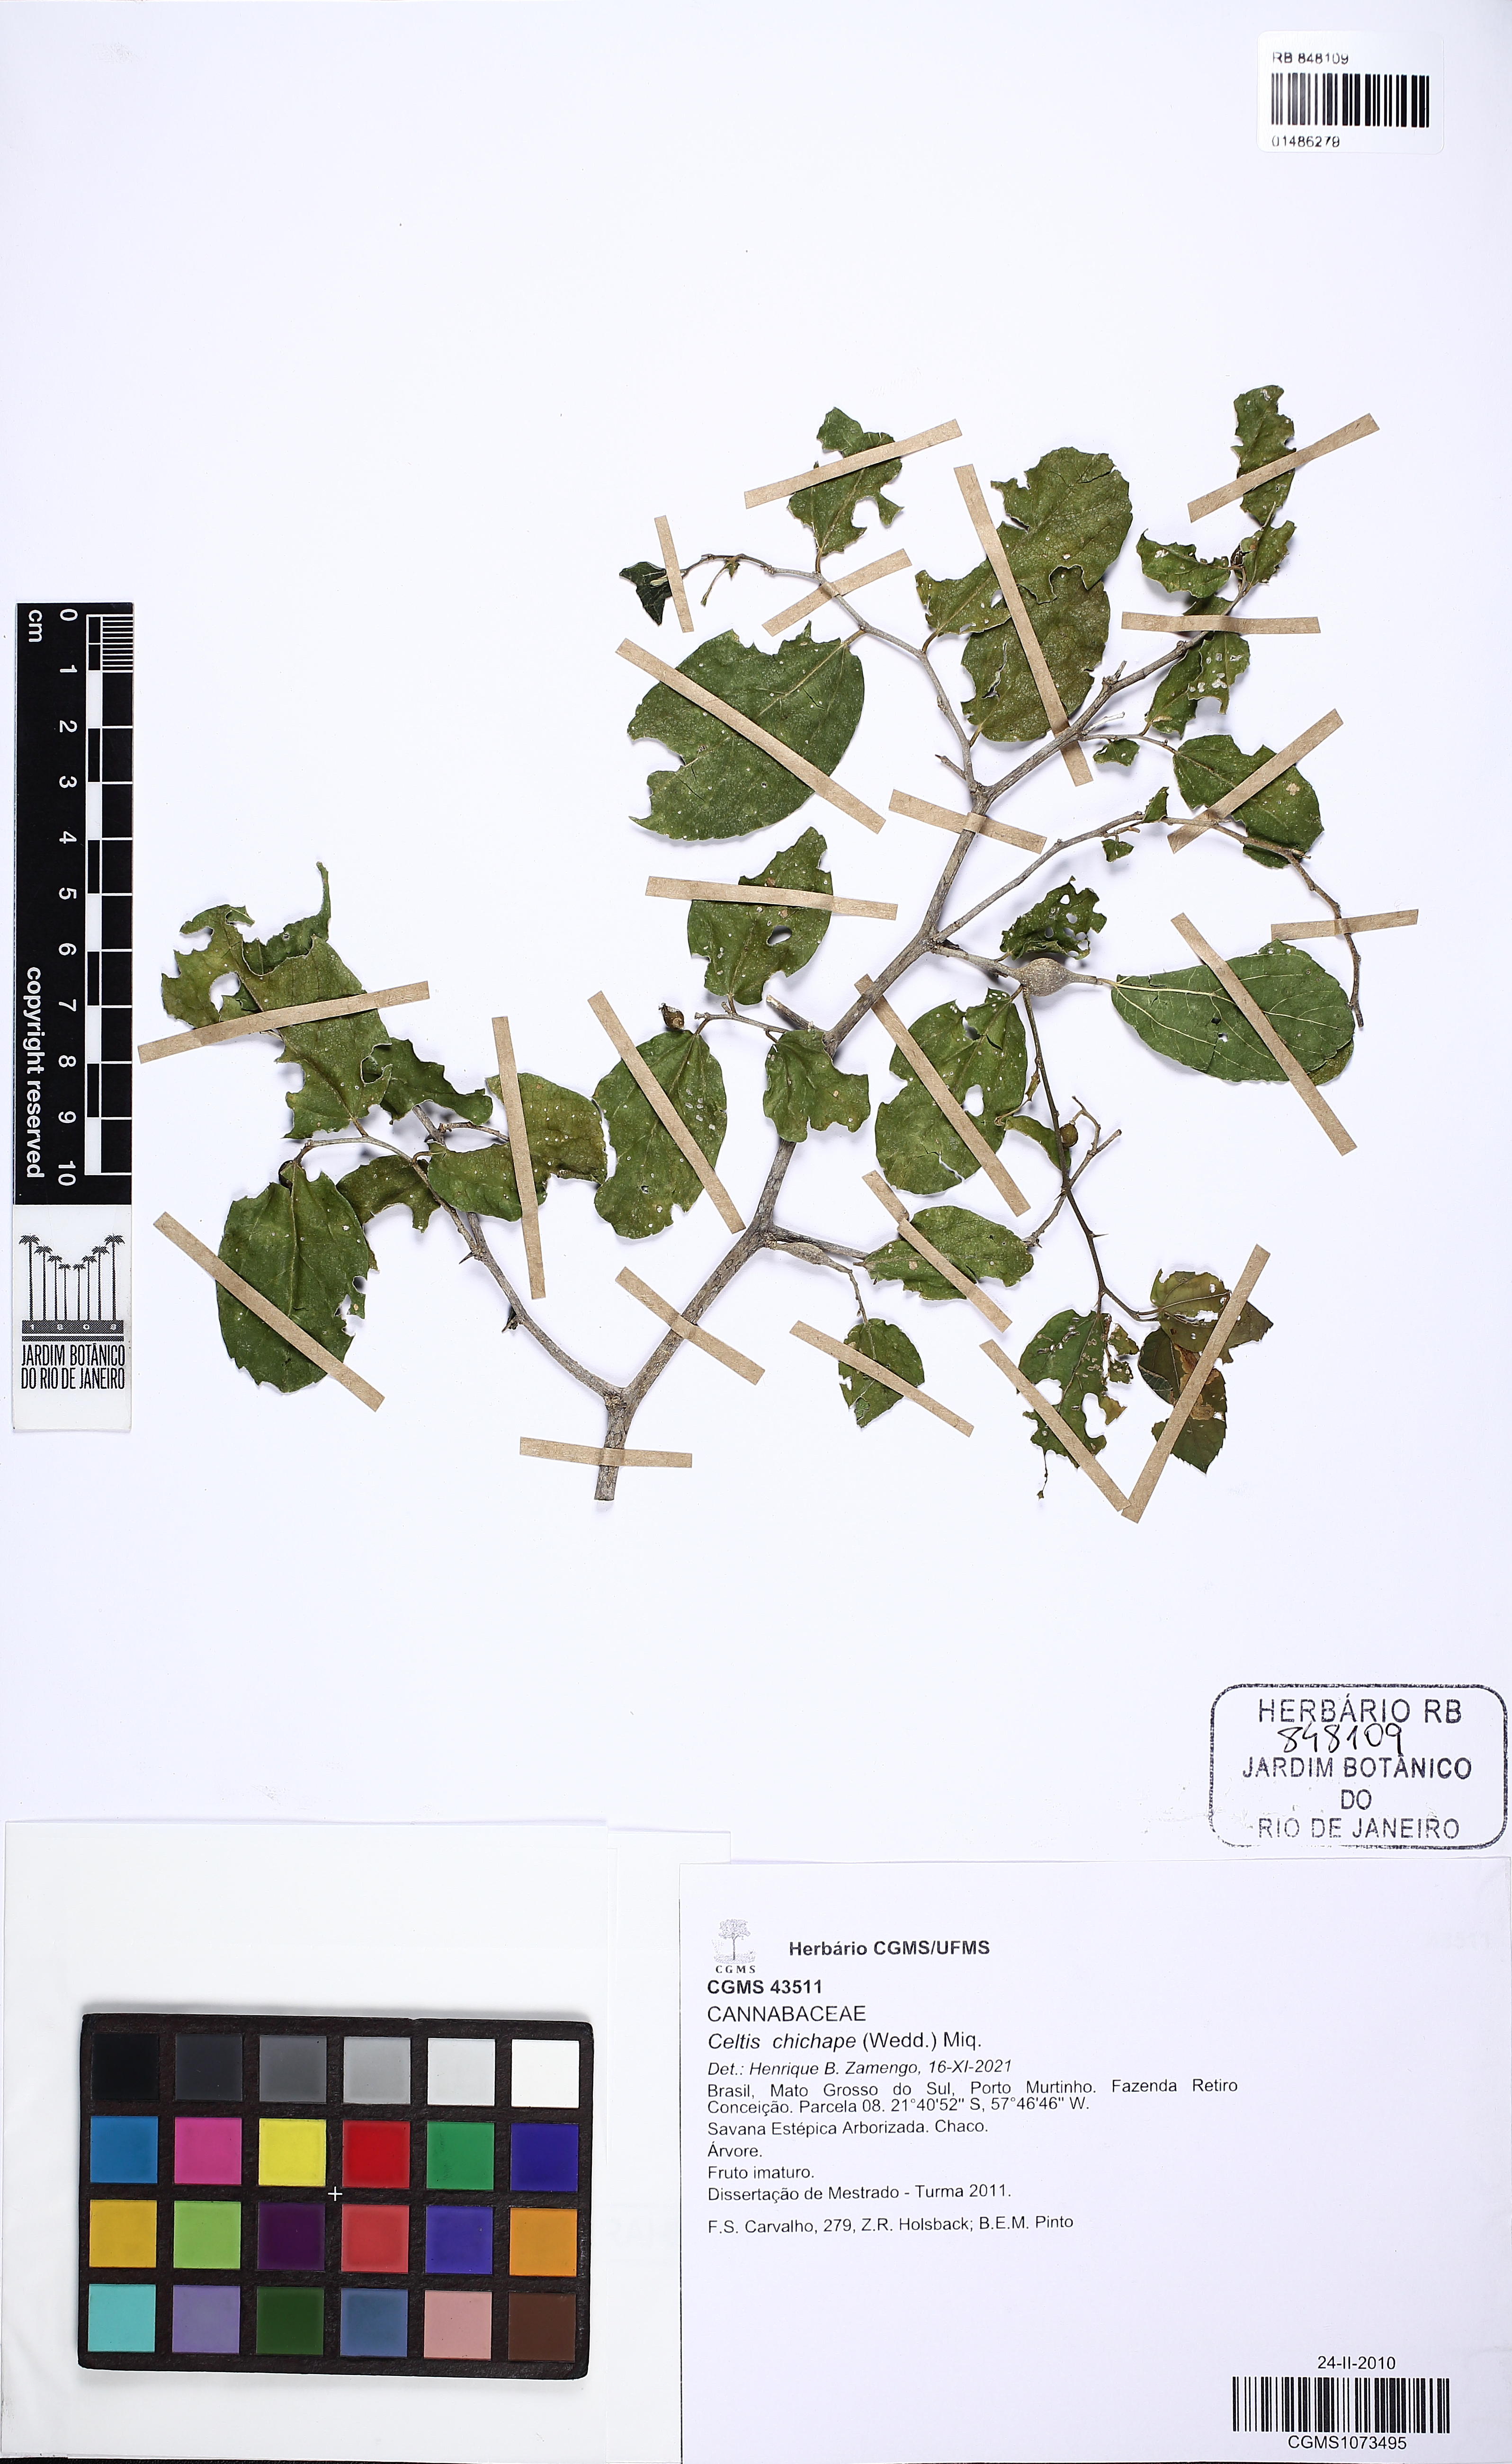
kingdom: Plantae
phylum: Tracheophyta
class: Magnoliopsida
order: Rosales
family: Cannabaceae
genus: Celtis
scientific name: Celtis chicape
